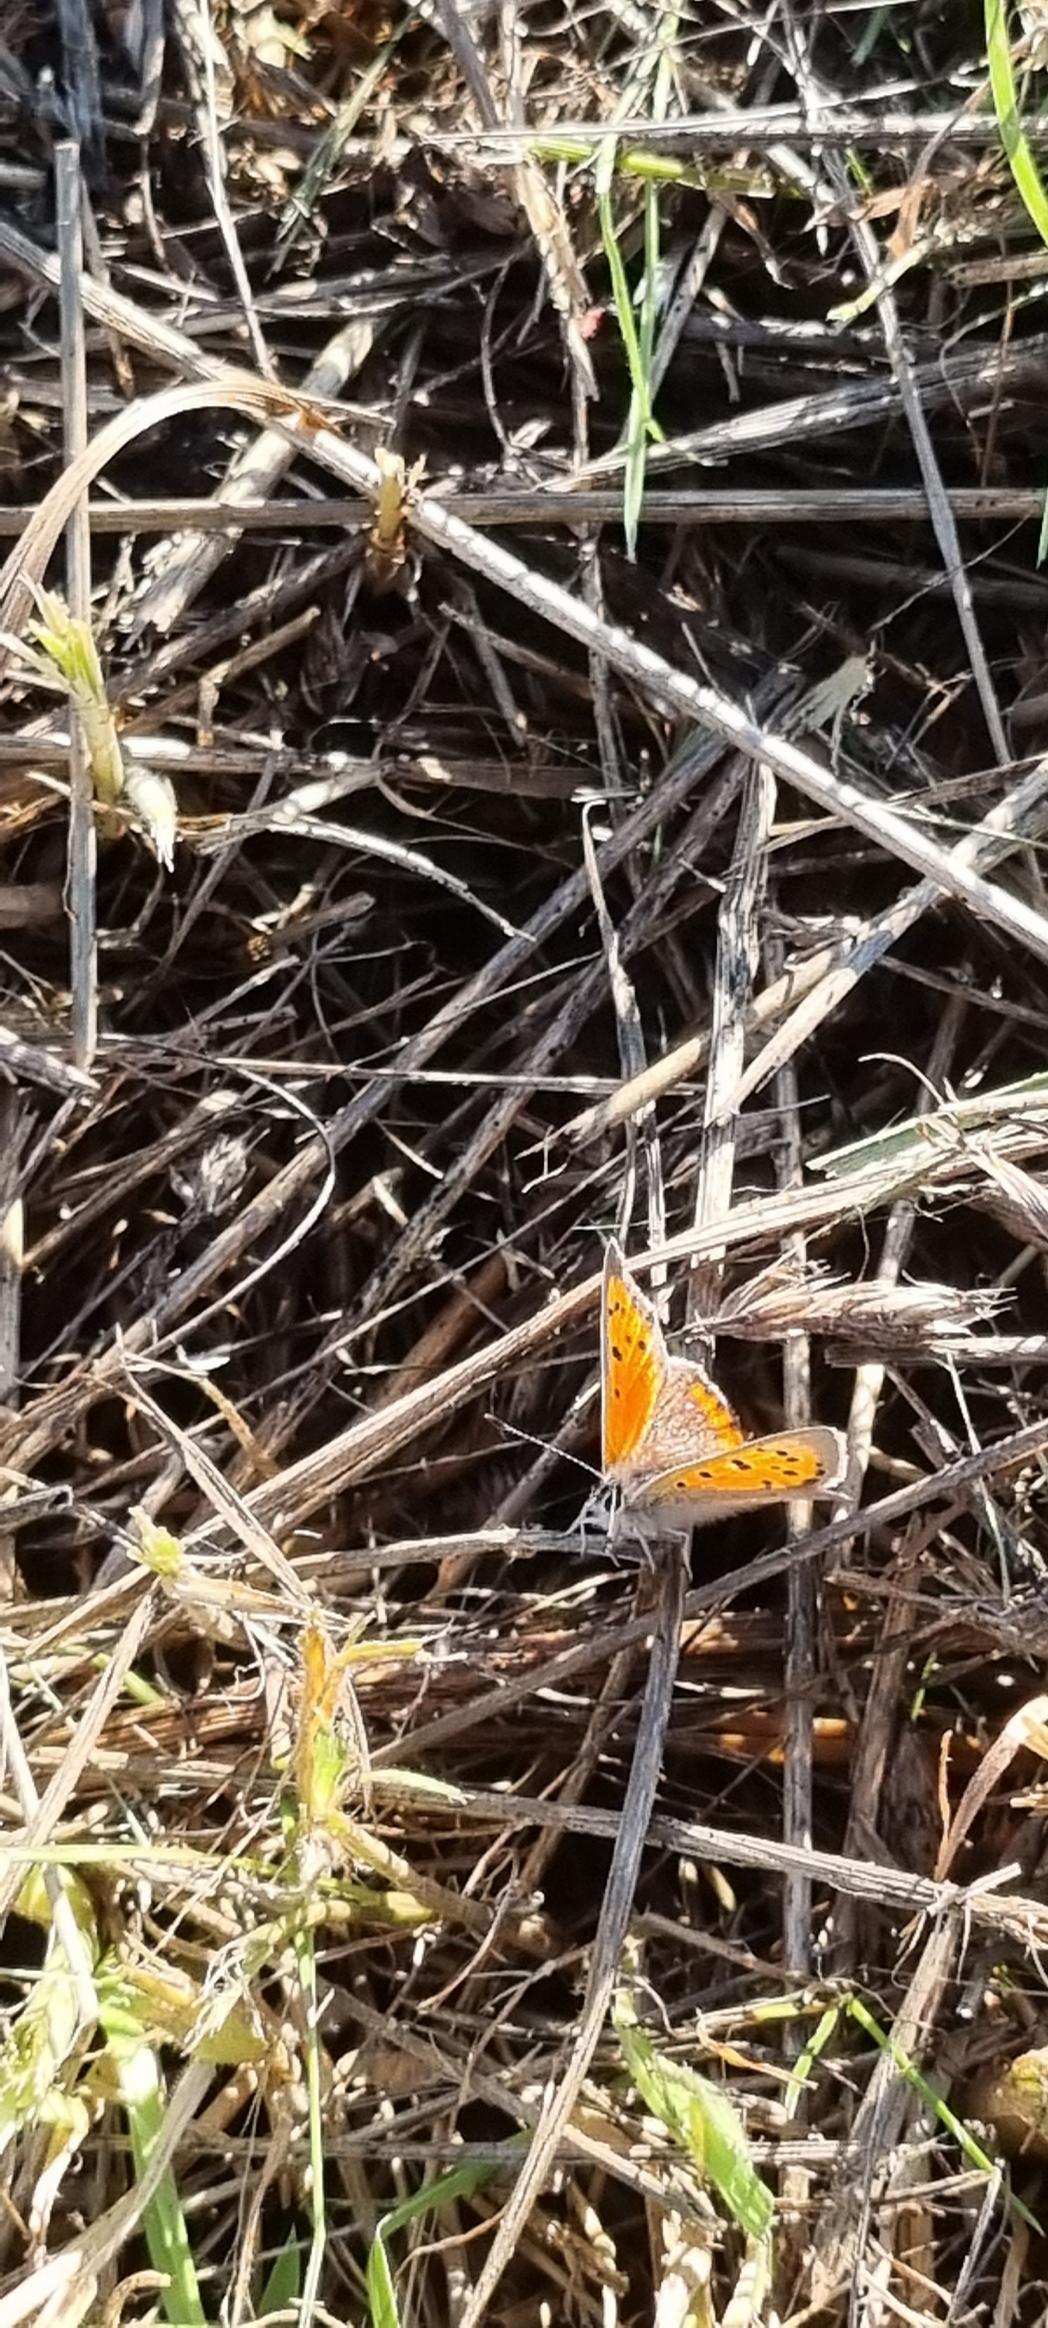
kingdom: Animalia
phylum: Arthropoda
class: Insecta
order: Lepidoptera
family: Lycaenidae
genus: Lycaena
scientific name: Lycaena phlaeas
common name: Lille ildfugl
